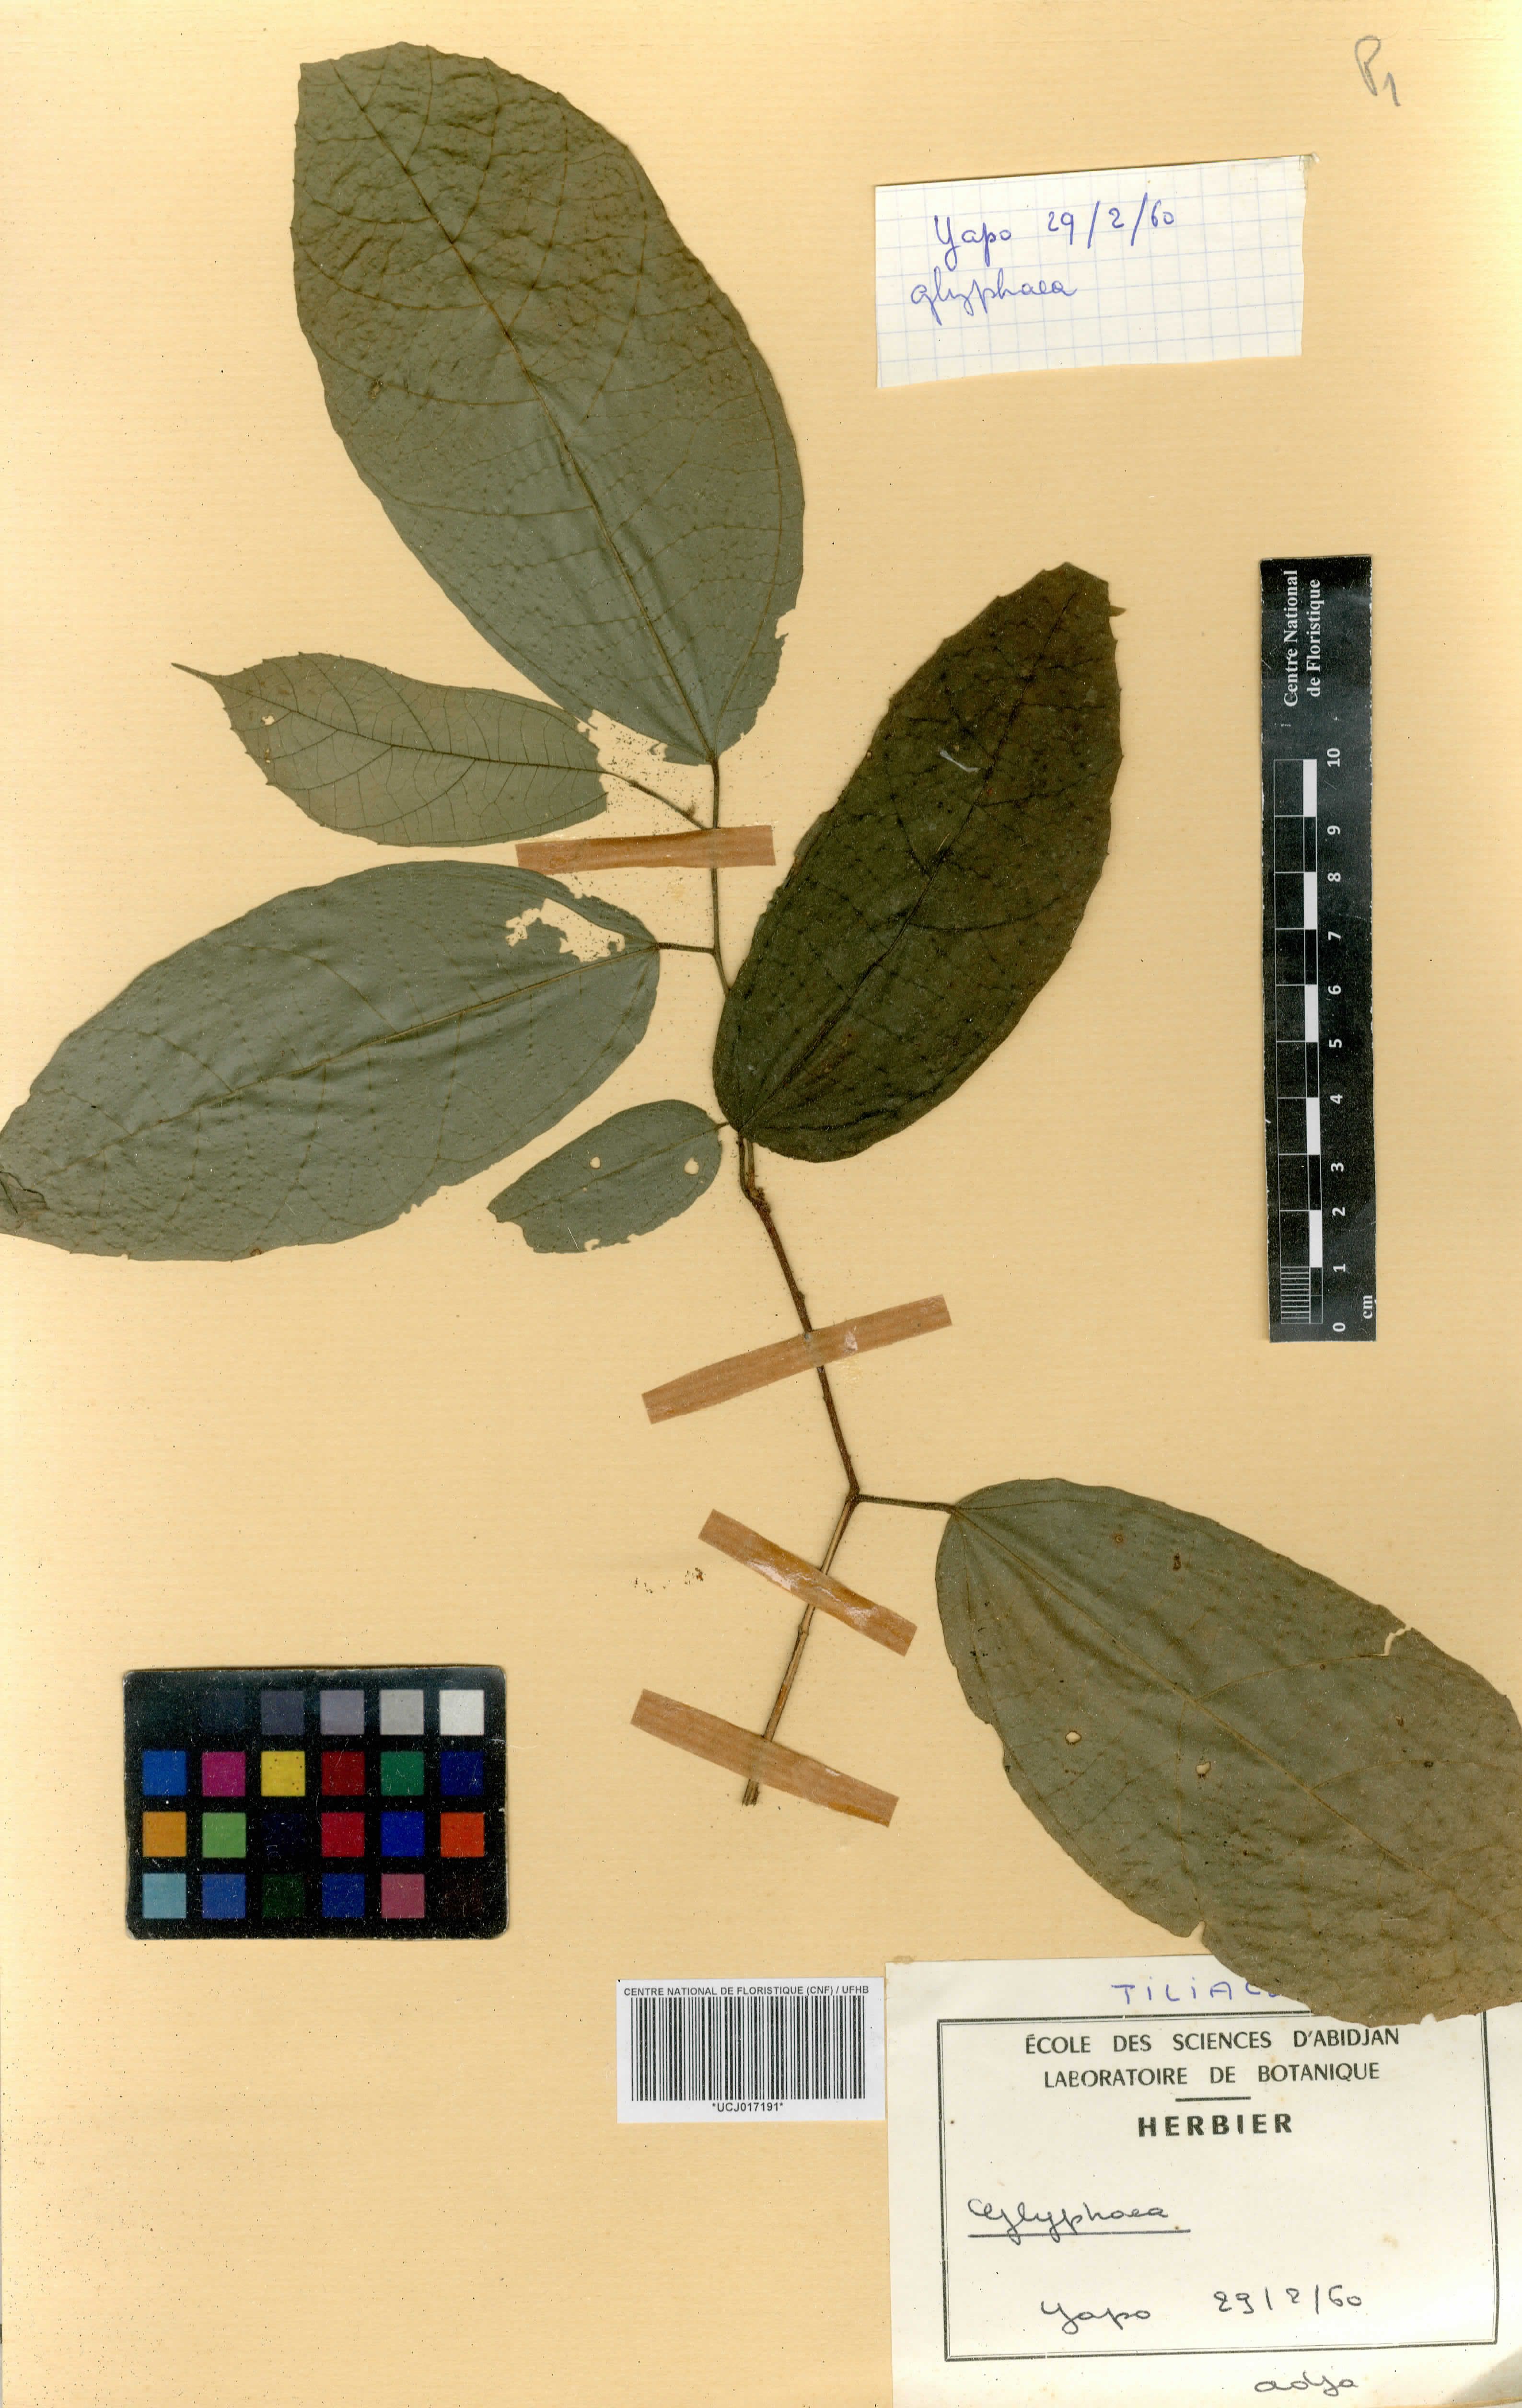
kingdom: Plantae
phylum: Tracheophyta
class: Magnoliopsida
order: Malvales
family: Malvaceae
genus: Glyphaea
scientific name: Glyphaea
